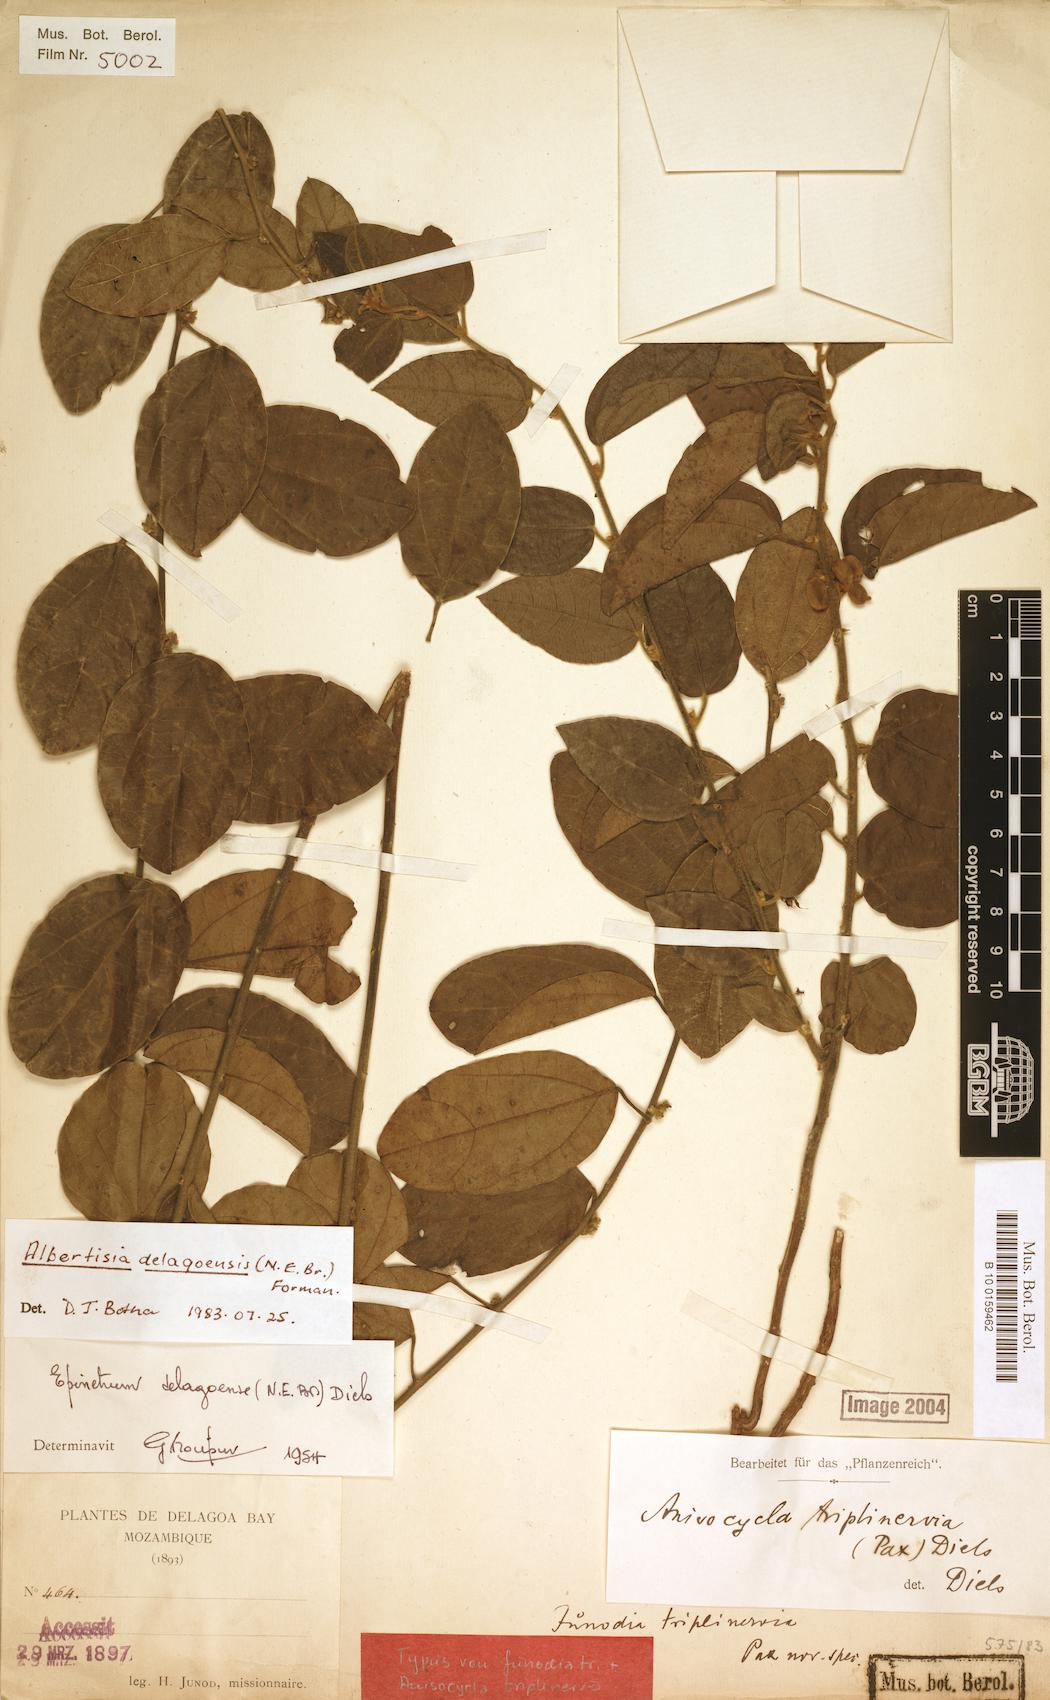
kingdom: Plantae
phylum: Tracheophyta
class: Magnoliopsida
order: Ranunculales
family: Menispermaceae
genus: Albertisia
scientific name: Albertisia delagoensis
